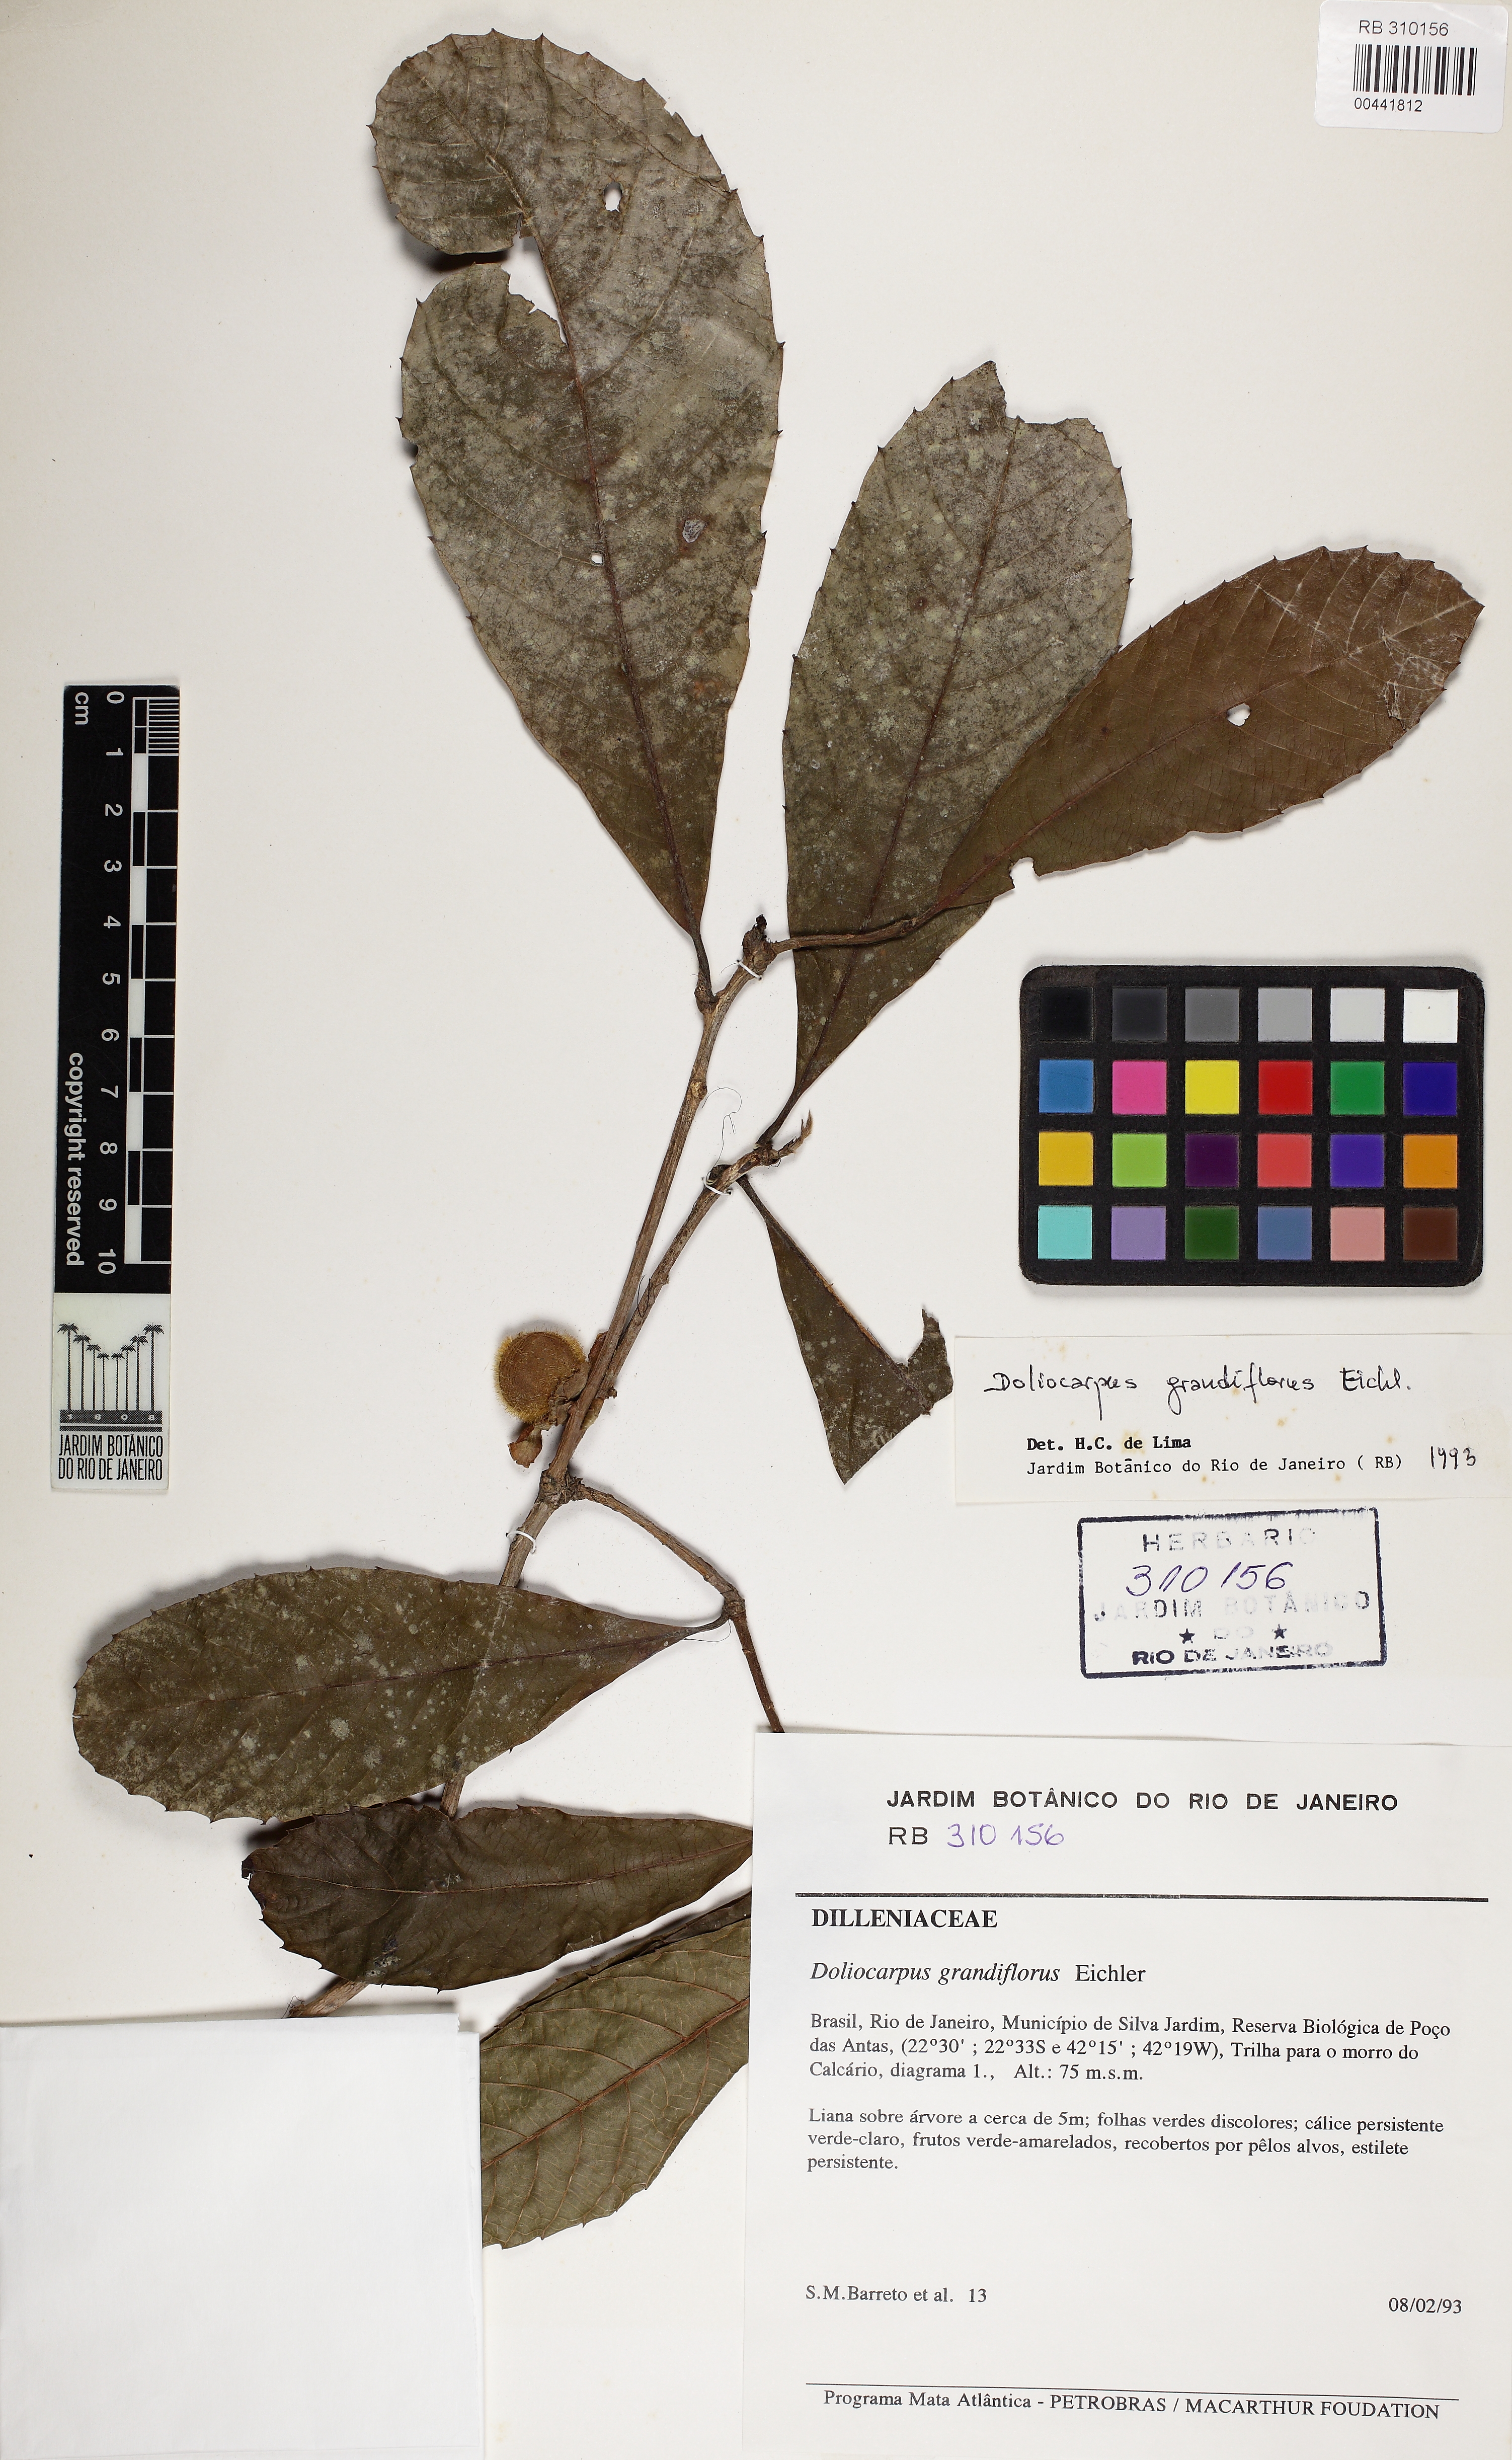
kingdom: Plantae
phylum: Tracheophyta
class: Magnoliopsida
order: Dilleniales
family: Dilleniaceae
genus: Doliocarpus
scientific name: Doliocarpus grandiflorus
